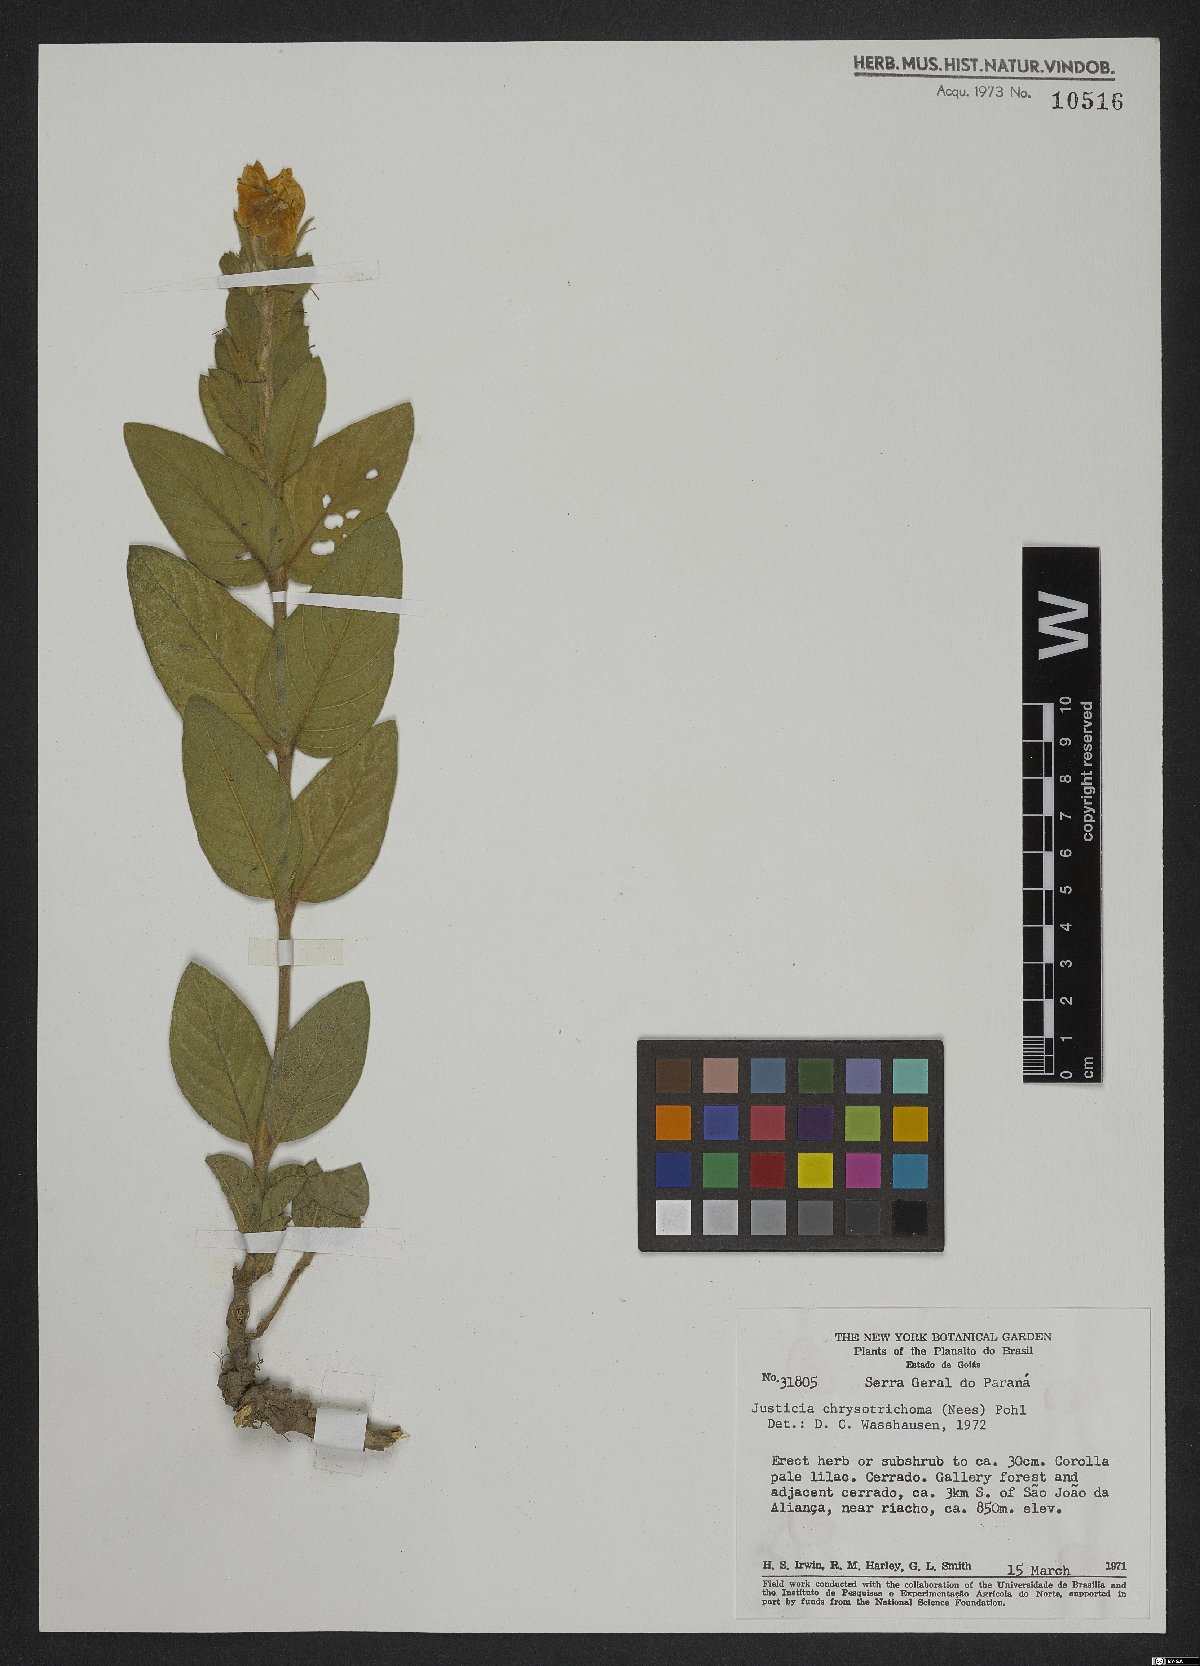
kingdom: Plantae
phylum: Tracheophyta
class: Magnoliopsida
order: Lamiales
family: Acanthaceae
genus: Justicia
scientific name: Justicia chrysotrichoma
